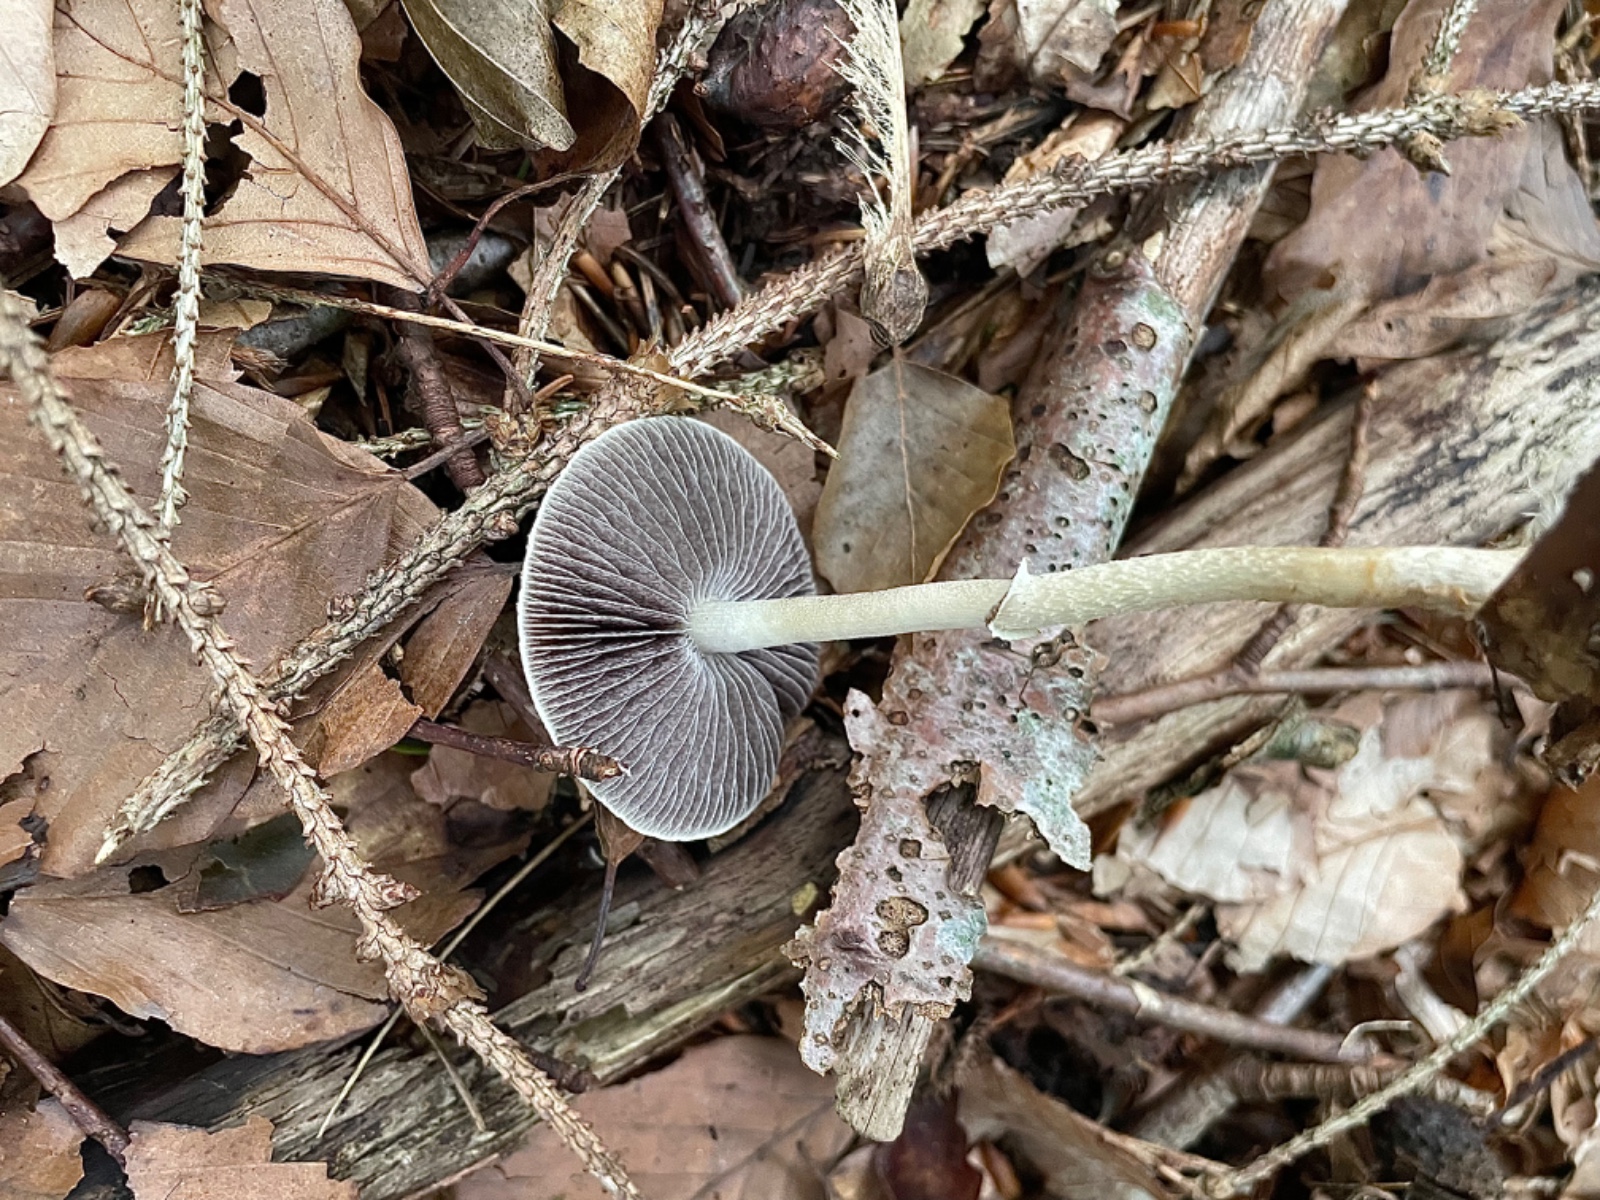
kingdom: Fungi
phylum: Basidiomycota
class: Agaricomycetes
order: Agaricales
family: Strophariaceae
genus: Leratiomyces
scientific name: Leratiomyces squamosus
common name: skællet bredblad
